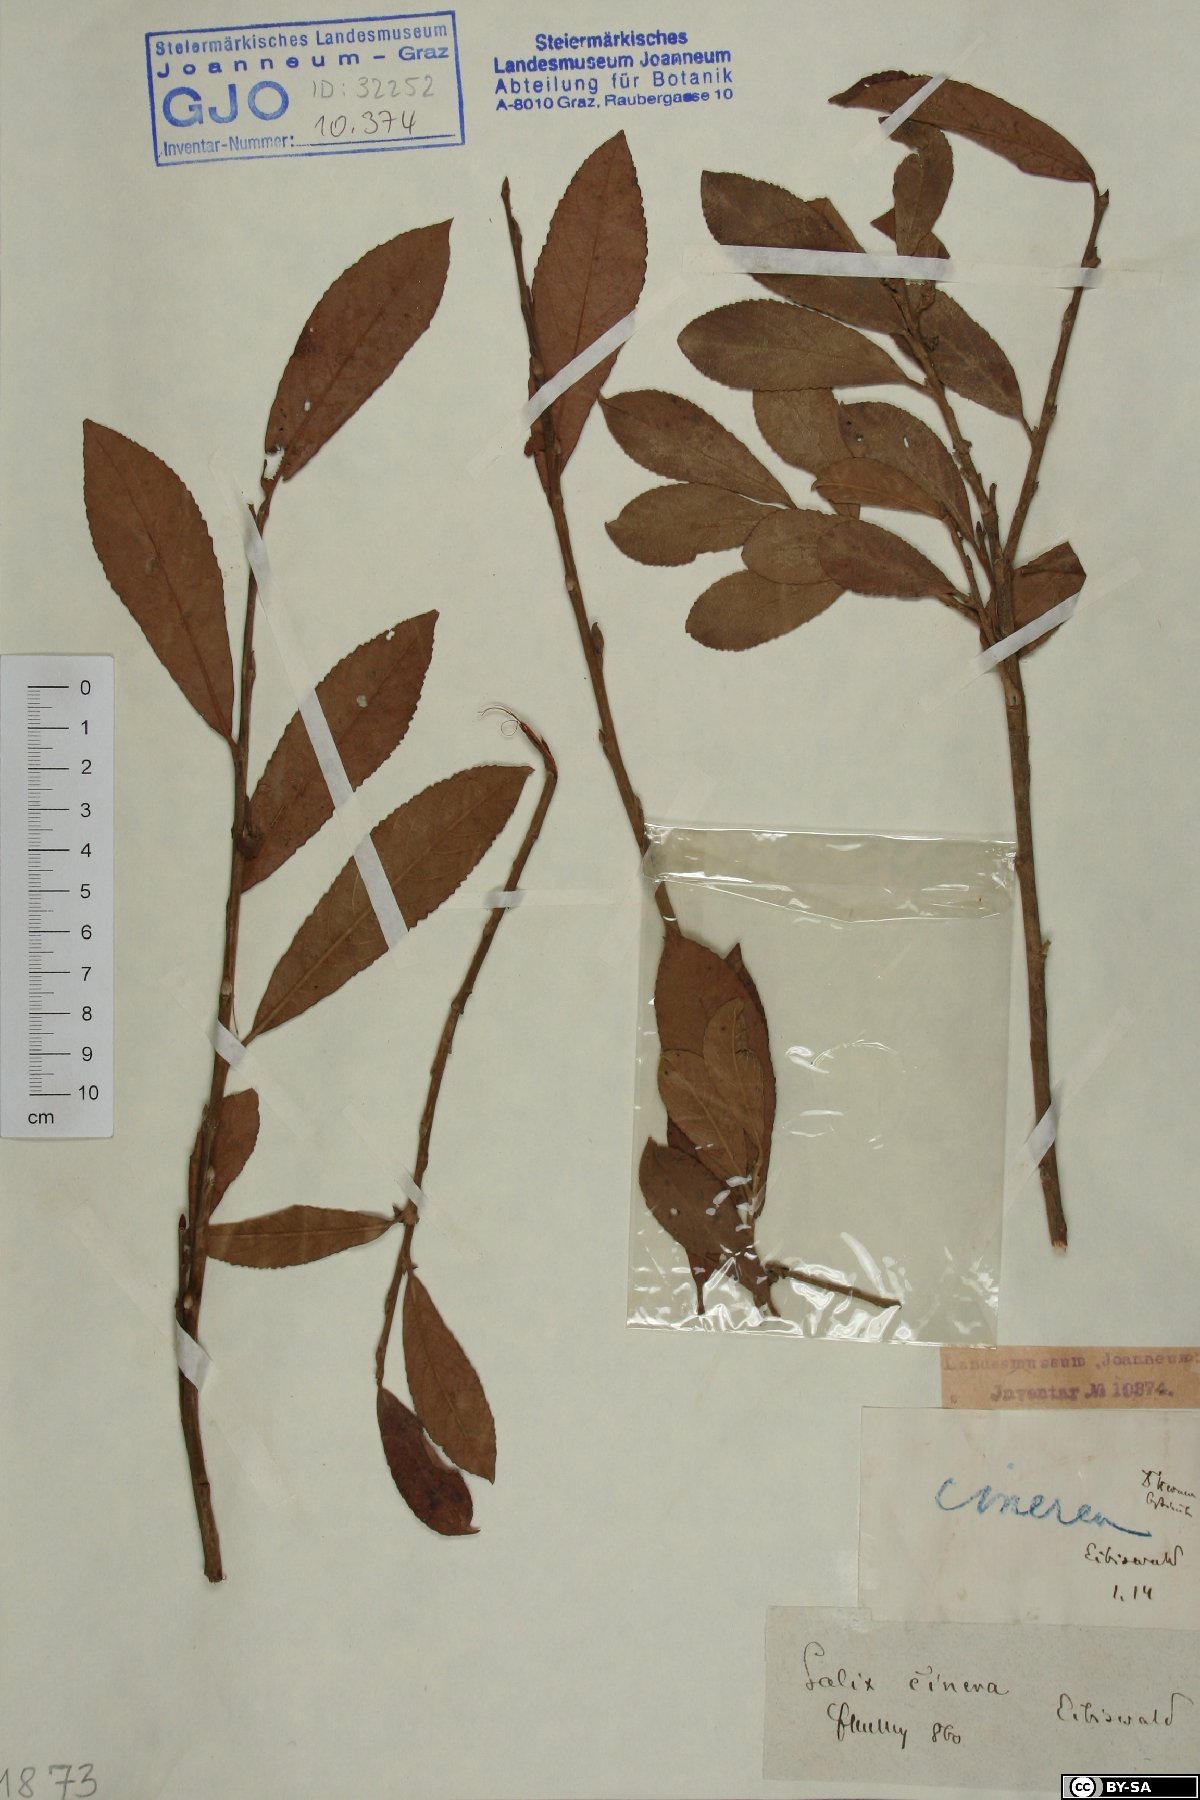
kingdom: Plantae
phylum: Tracheophyta
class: Magnoliopsida
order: Malpighiales
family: Salicaceae
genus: Salix
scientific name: Salix cinerea
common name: Common sallow
